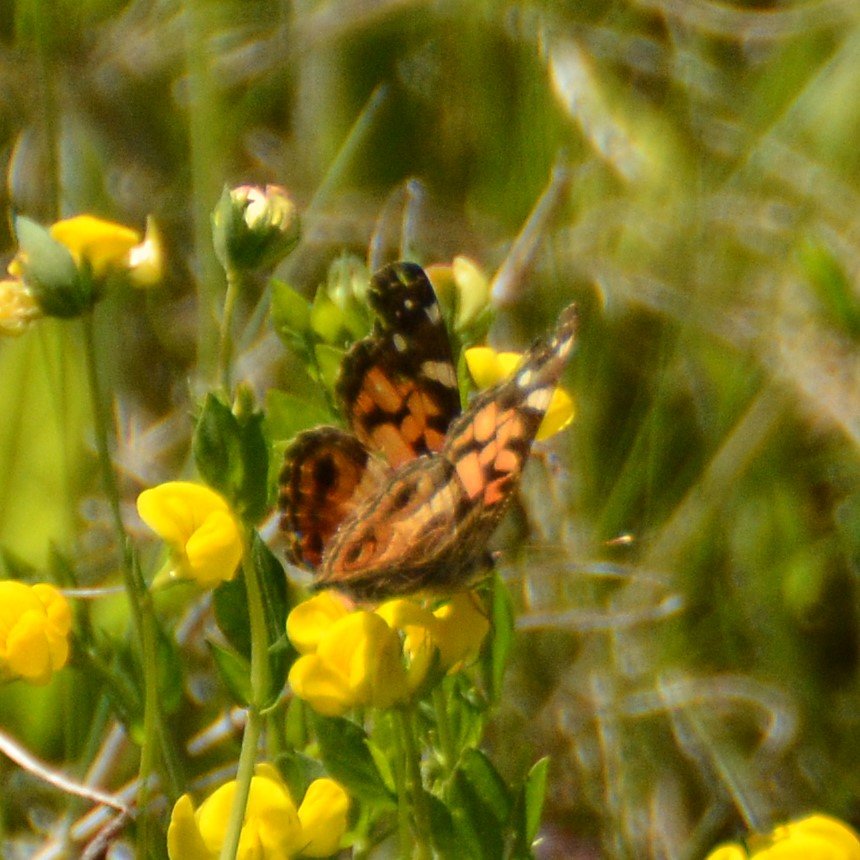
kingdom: Animalia
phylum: Arthropoda
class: Insecta
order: Lepidoptera
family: Nymphalidae
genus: Vanessa
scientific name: Vanessa virginiensis
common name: American Lady
